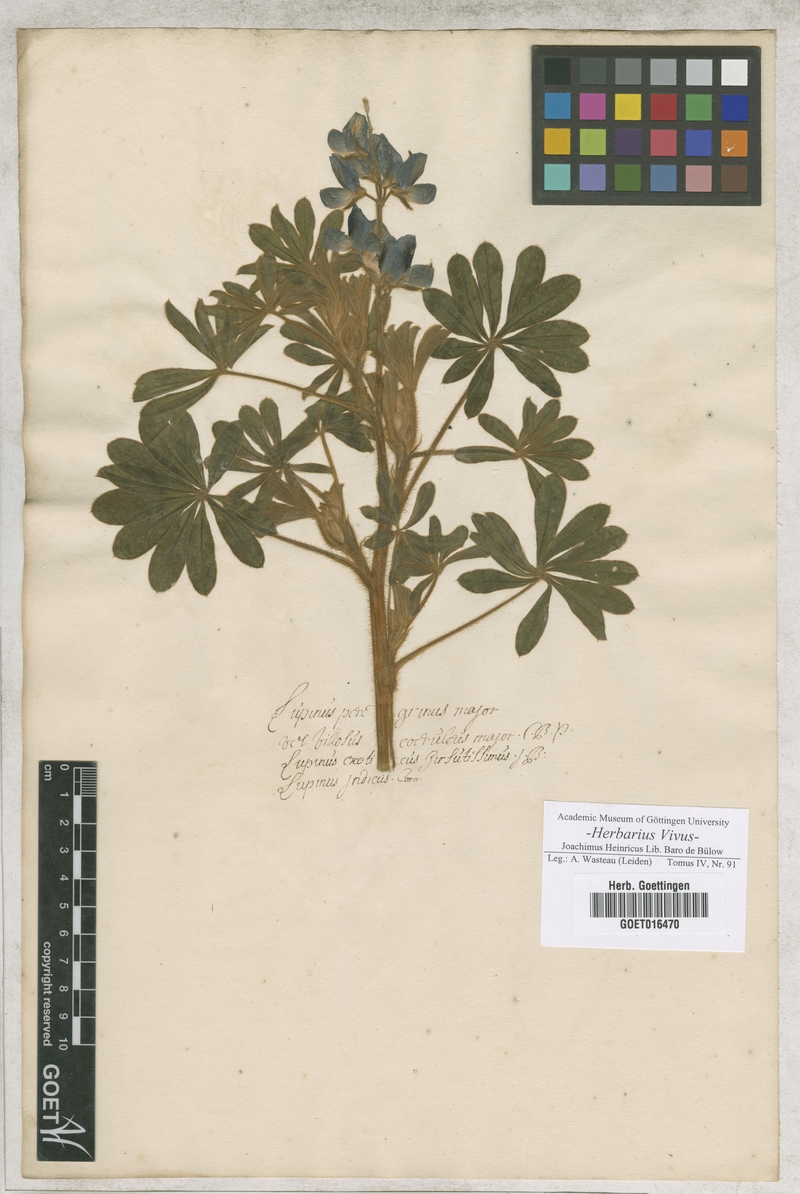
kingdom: Plantae
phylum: Tracheophyta
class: Magnoliopsida
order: Fabales
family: Fabaceae
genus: Lupinus
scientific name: Lupinus gussoneanus
